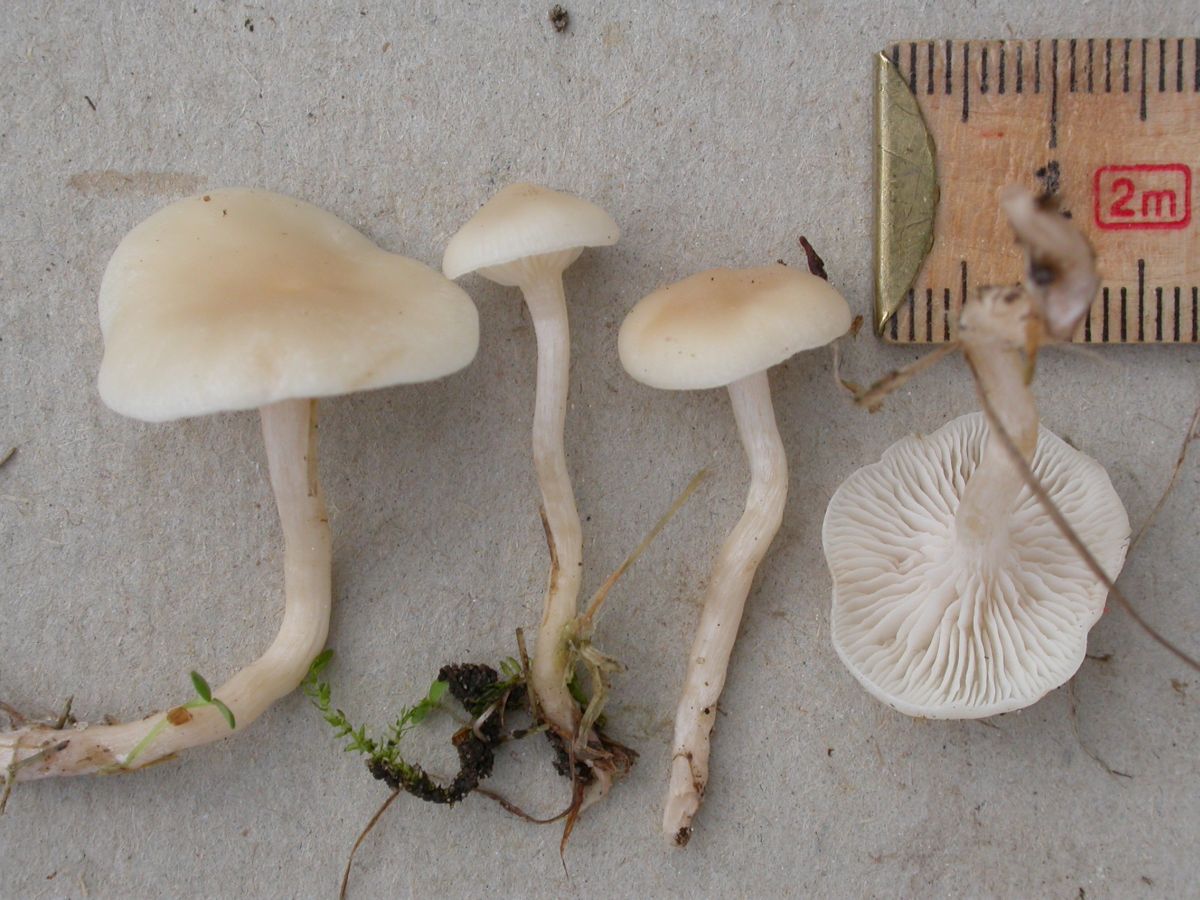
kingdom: Fungi
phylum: Basidiomycota
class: Agaricomycetes
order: Agaricales
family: Tricholomataceae
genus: Clitocybe
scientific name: Clitocybe agrestis
